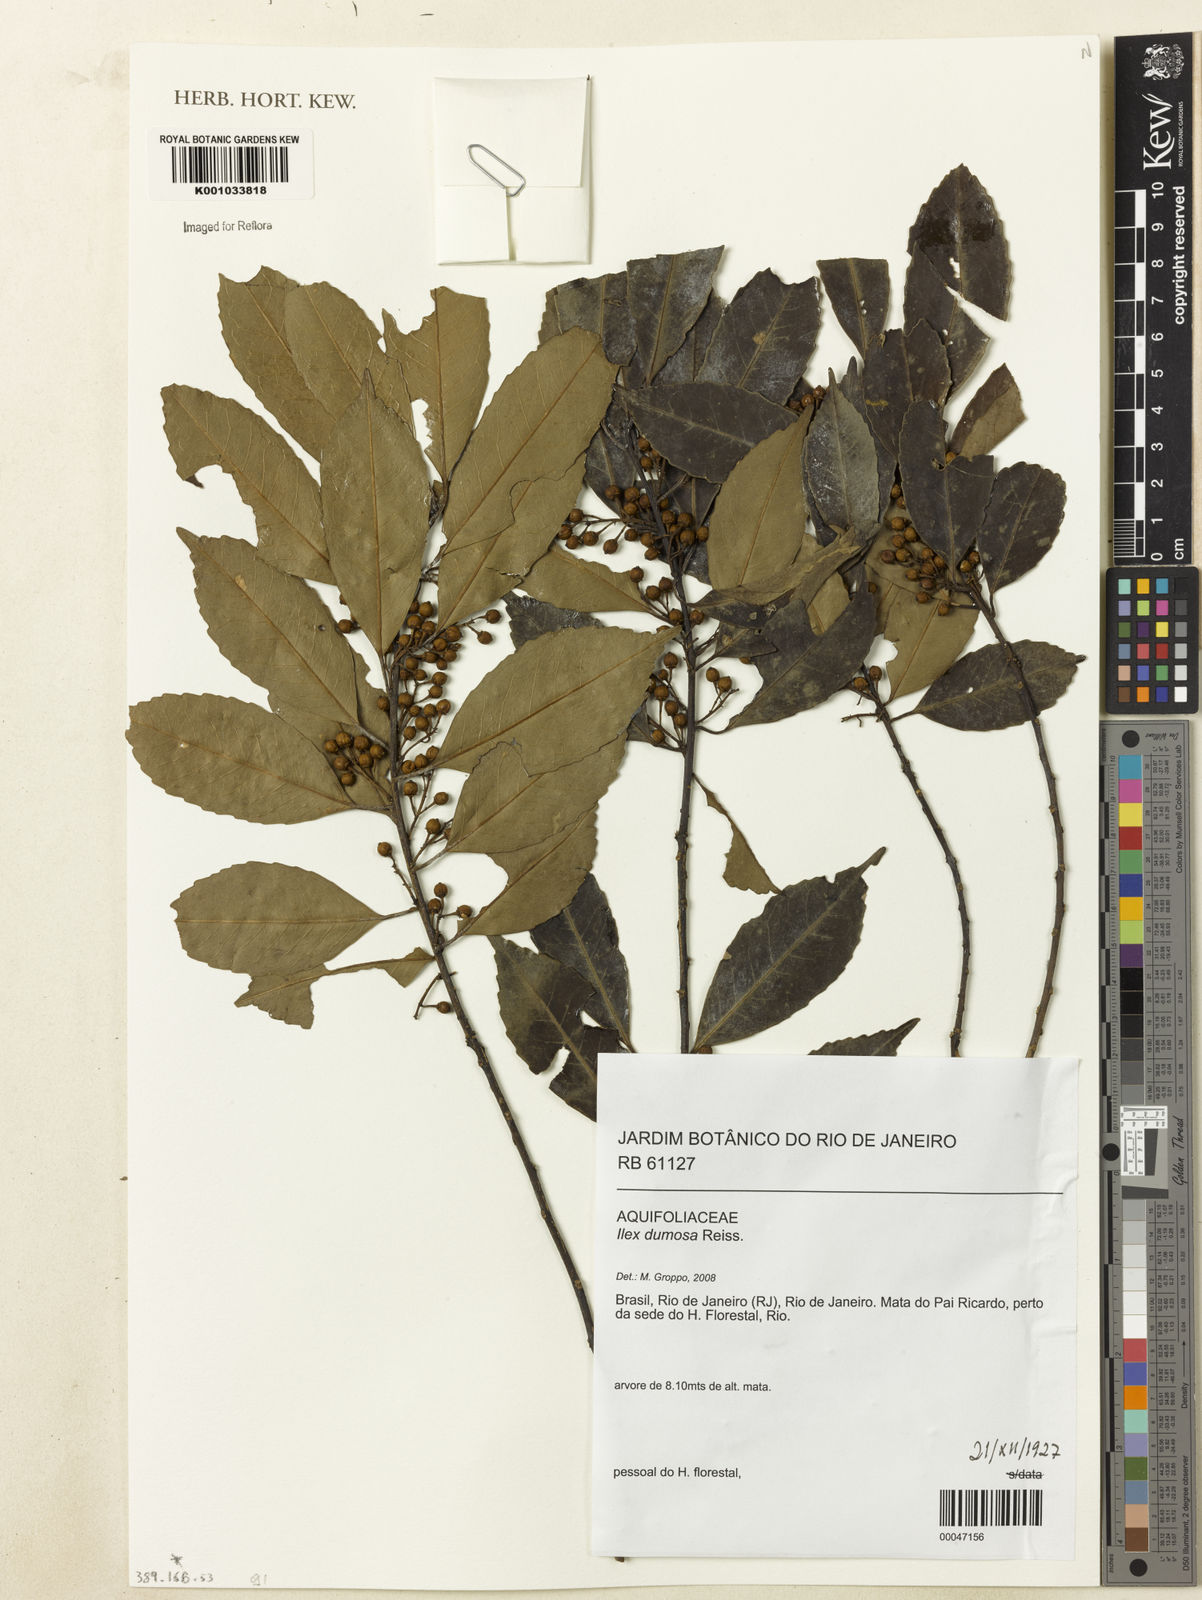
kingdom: Plantae
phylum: Tracheophyta
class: Magnoliopsida
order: Aquifoliales
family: Aquifoliaceae
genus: Ilex
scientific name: Ilex dumosa
